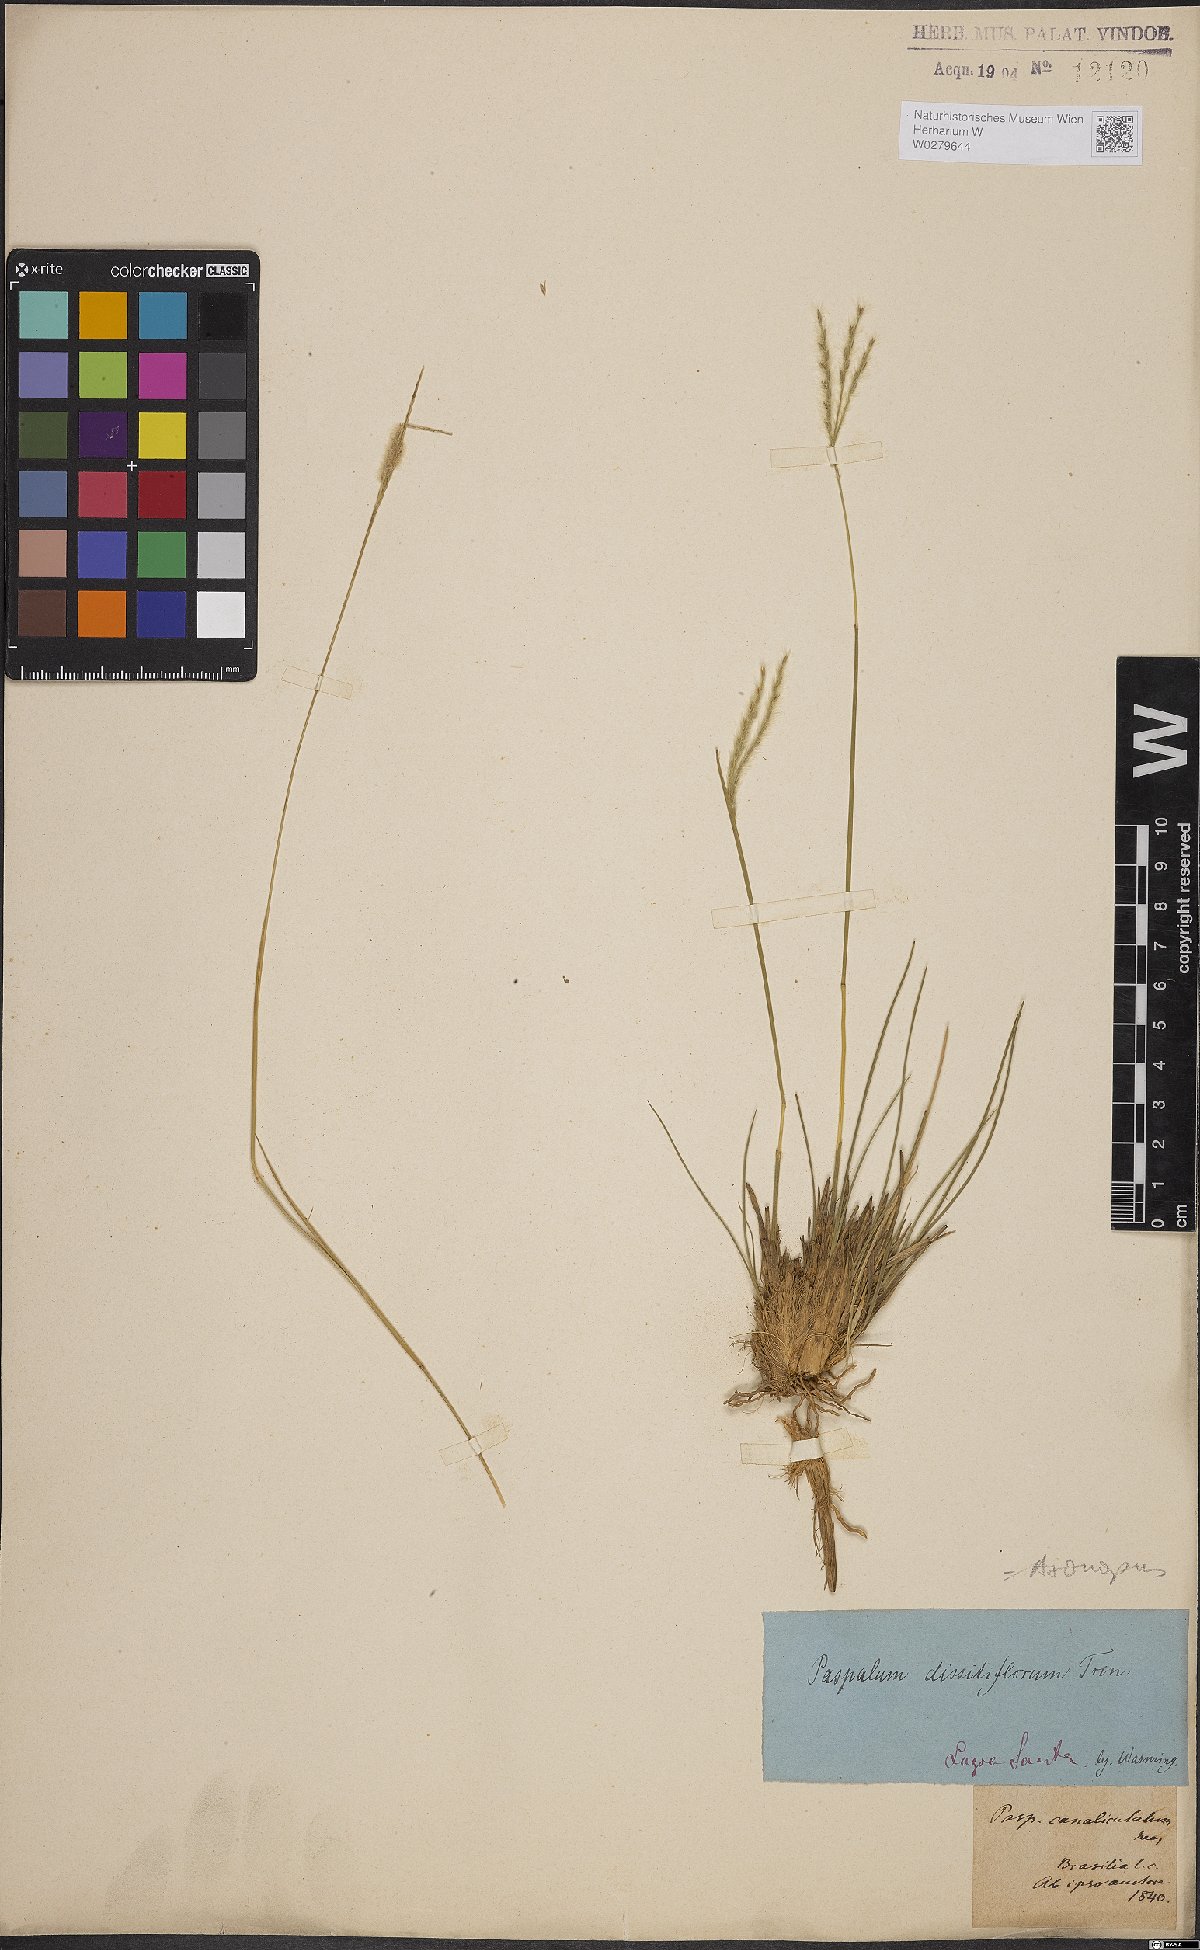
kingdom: Plantae
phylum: Tracheophyta
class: Liliopsida
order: Poales
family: Poaceae
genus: Axonopus
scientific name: Axonopus brasiliensis
